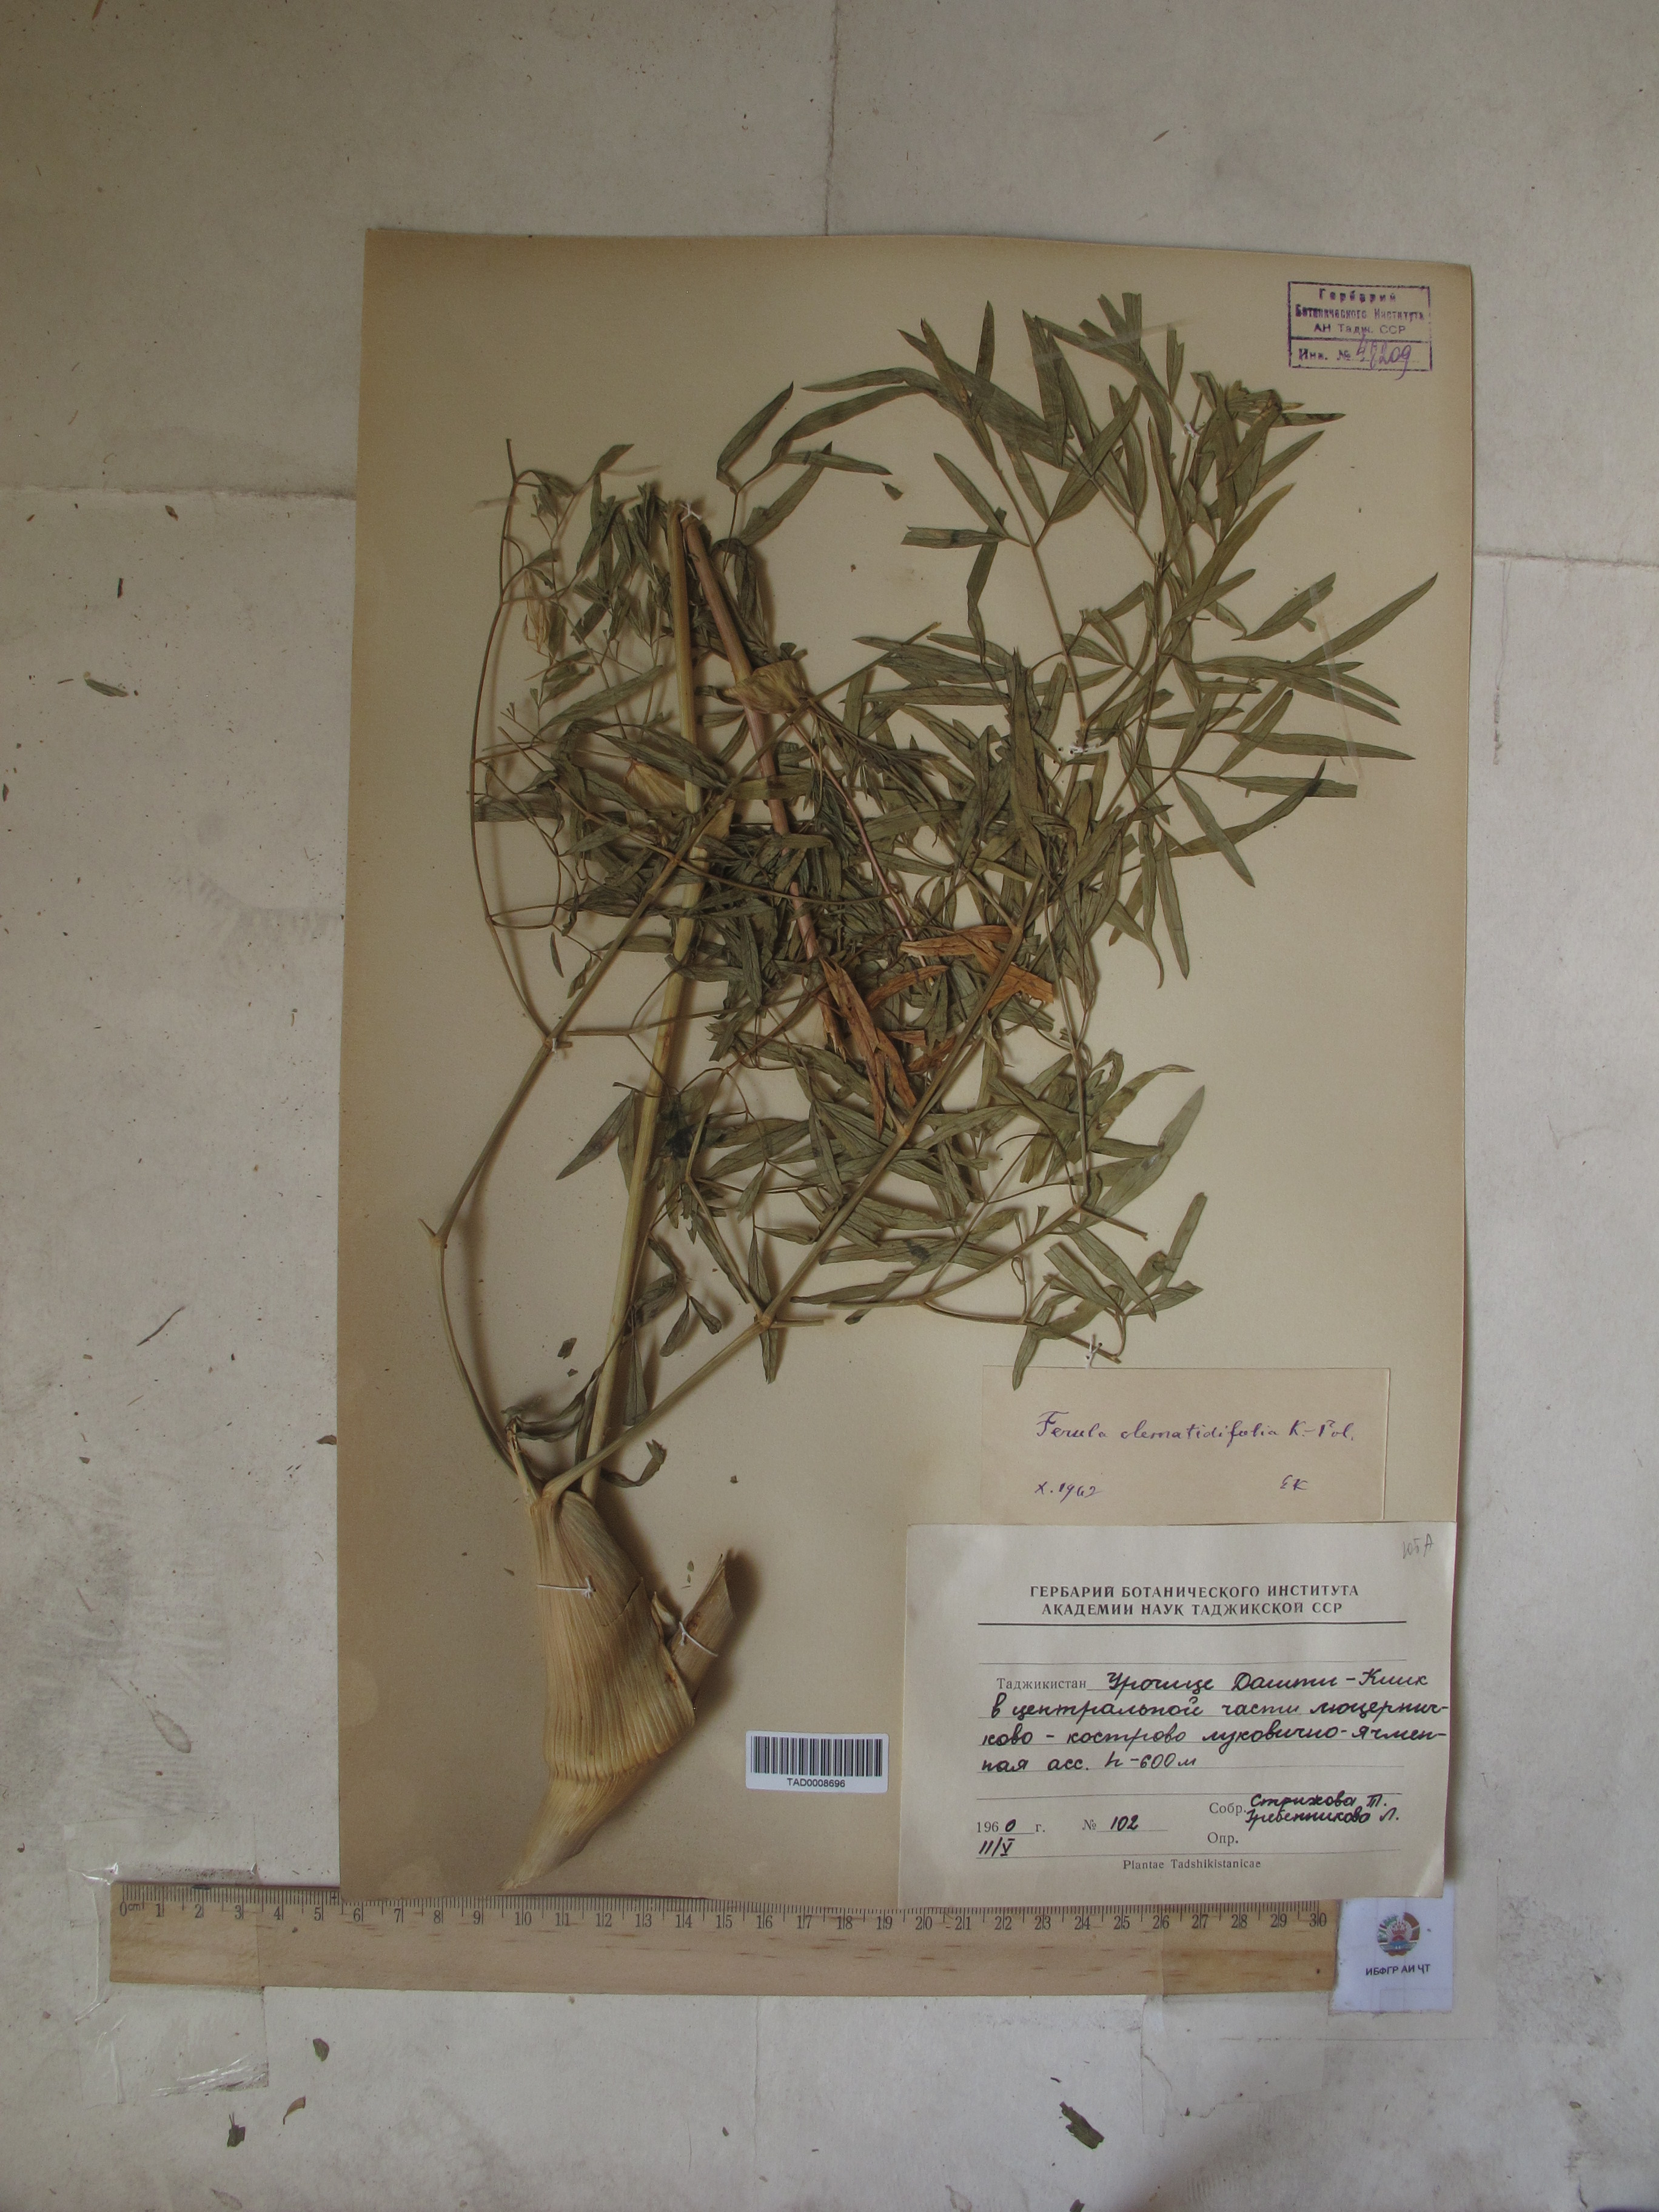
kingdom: Plantae
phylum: Tracheophyta
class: Magnoliopsida
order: Apiales
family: Apiaceae
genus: Ferula
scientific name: Ferula clematidifolia
